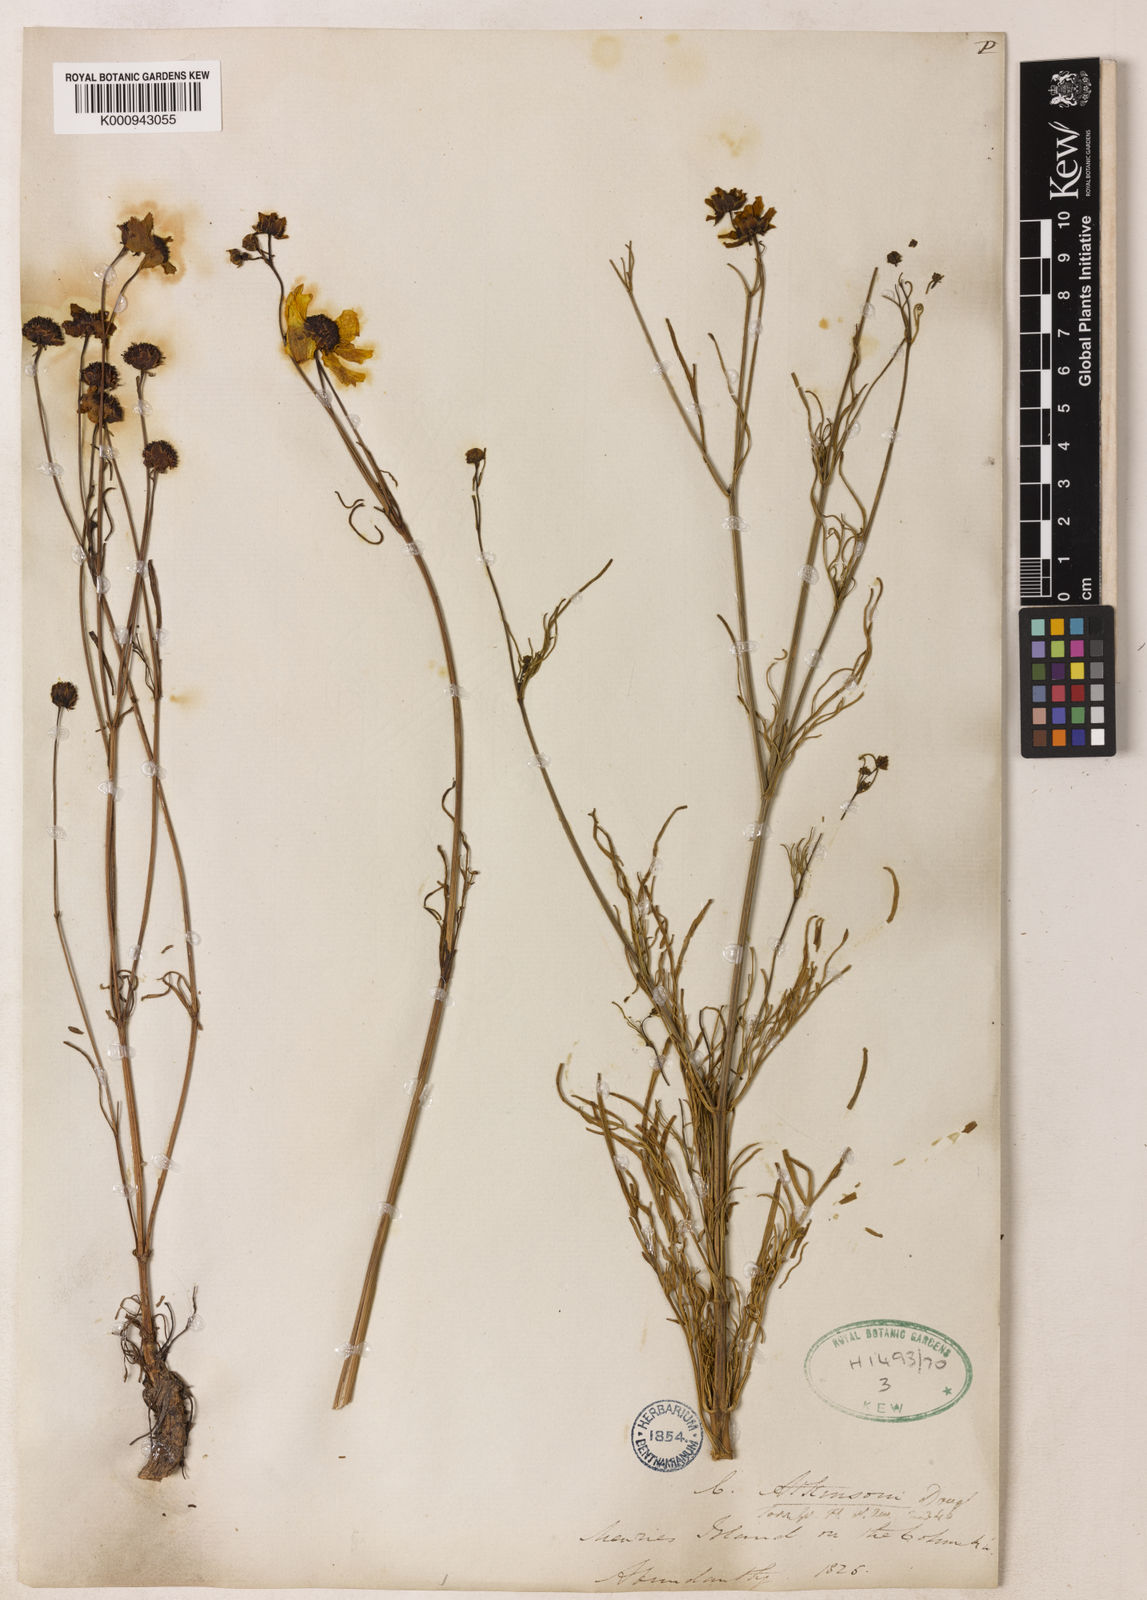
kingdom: Plantae
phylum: Tracheophyta
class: Magnoliopsida
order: Asterales
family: Asteraceae
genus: Coreopsis
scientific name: Coreopsis tinctoria
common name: Garden tickseed
